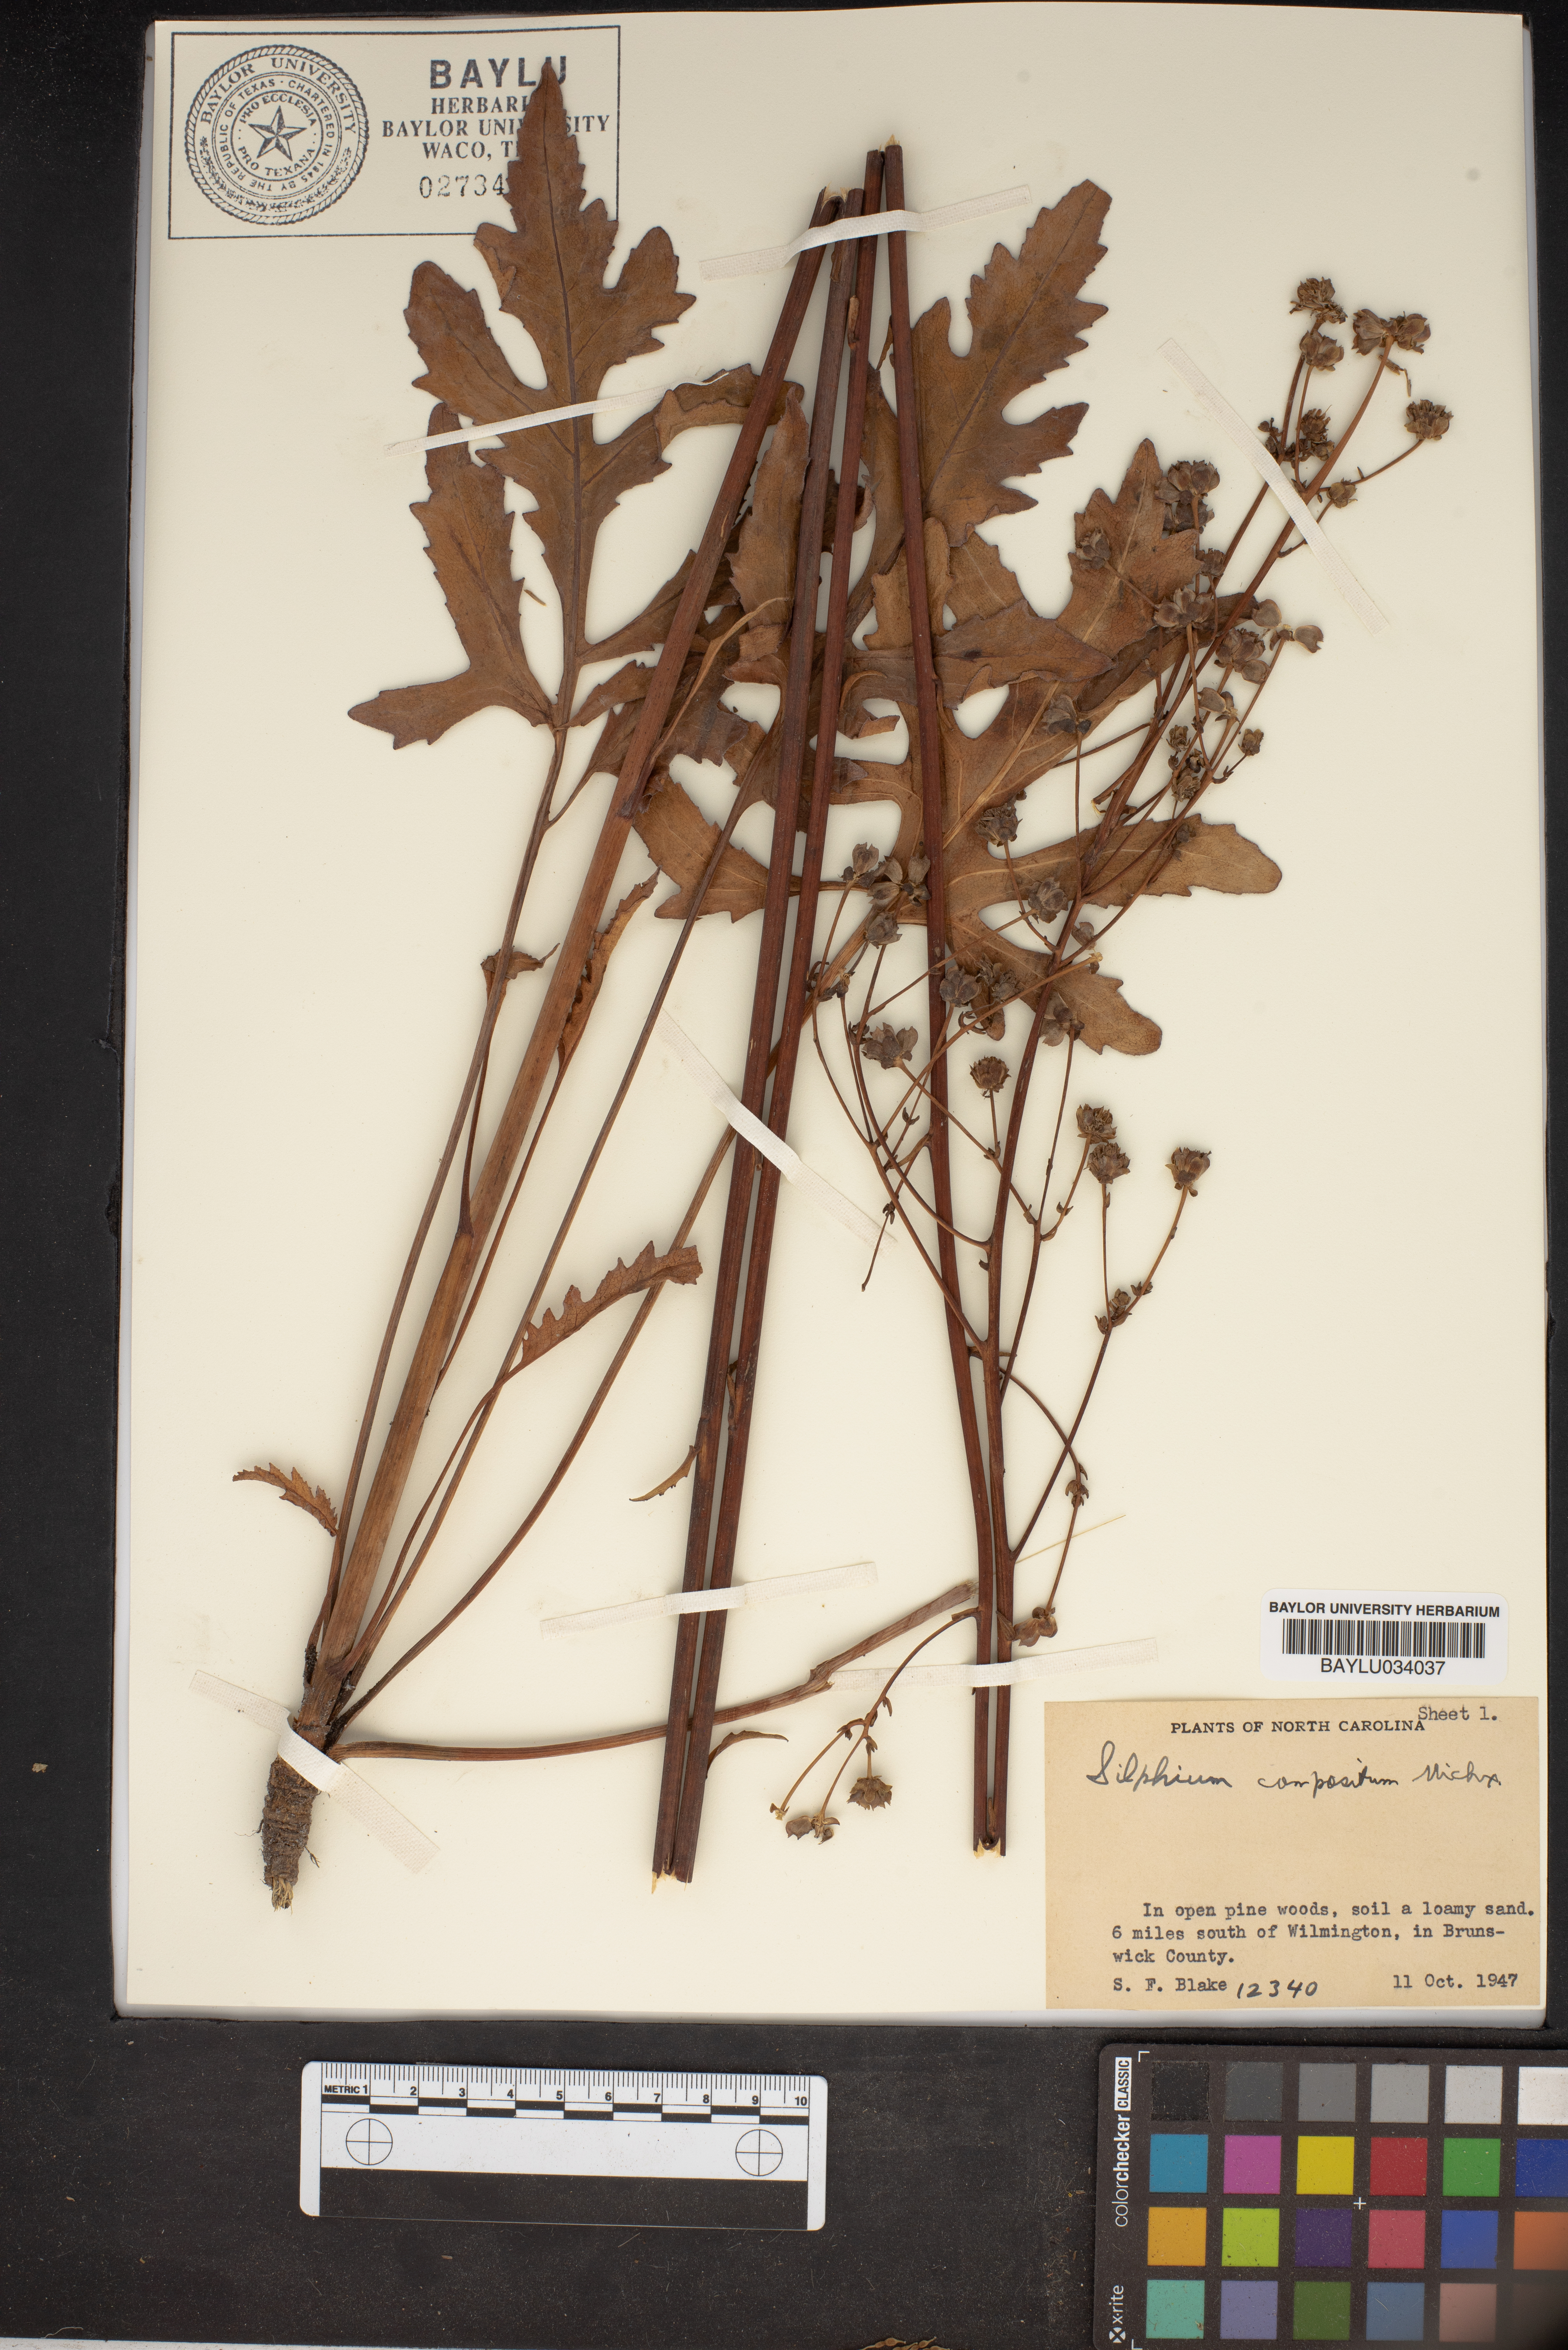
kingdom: Plantae
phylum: Tracheophyta
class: Magnoliopsida
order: Asterales
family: Asteraceae
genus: Silphium
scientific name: Silphium compositum
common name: Lesser basal-leaf rosinweed
